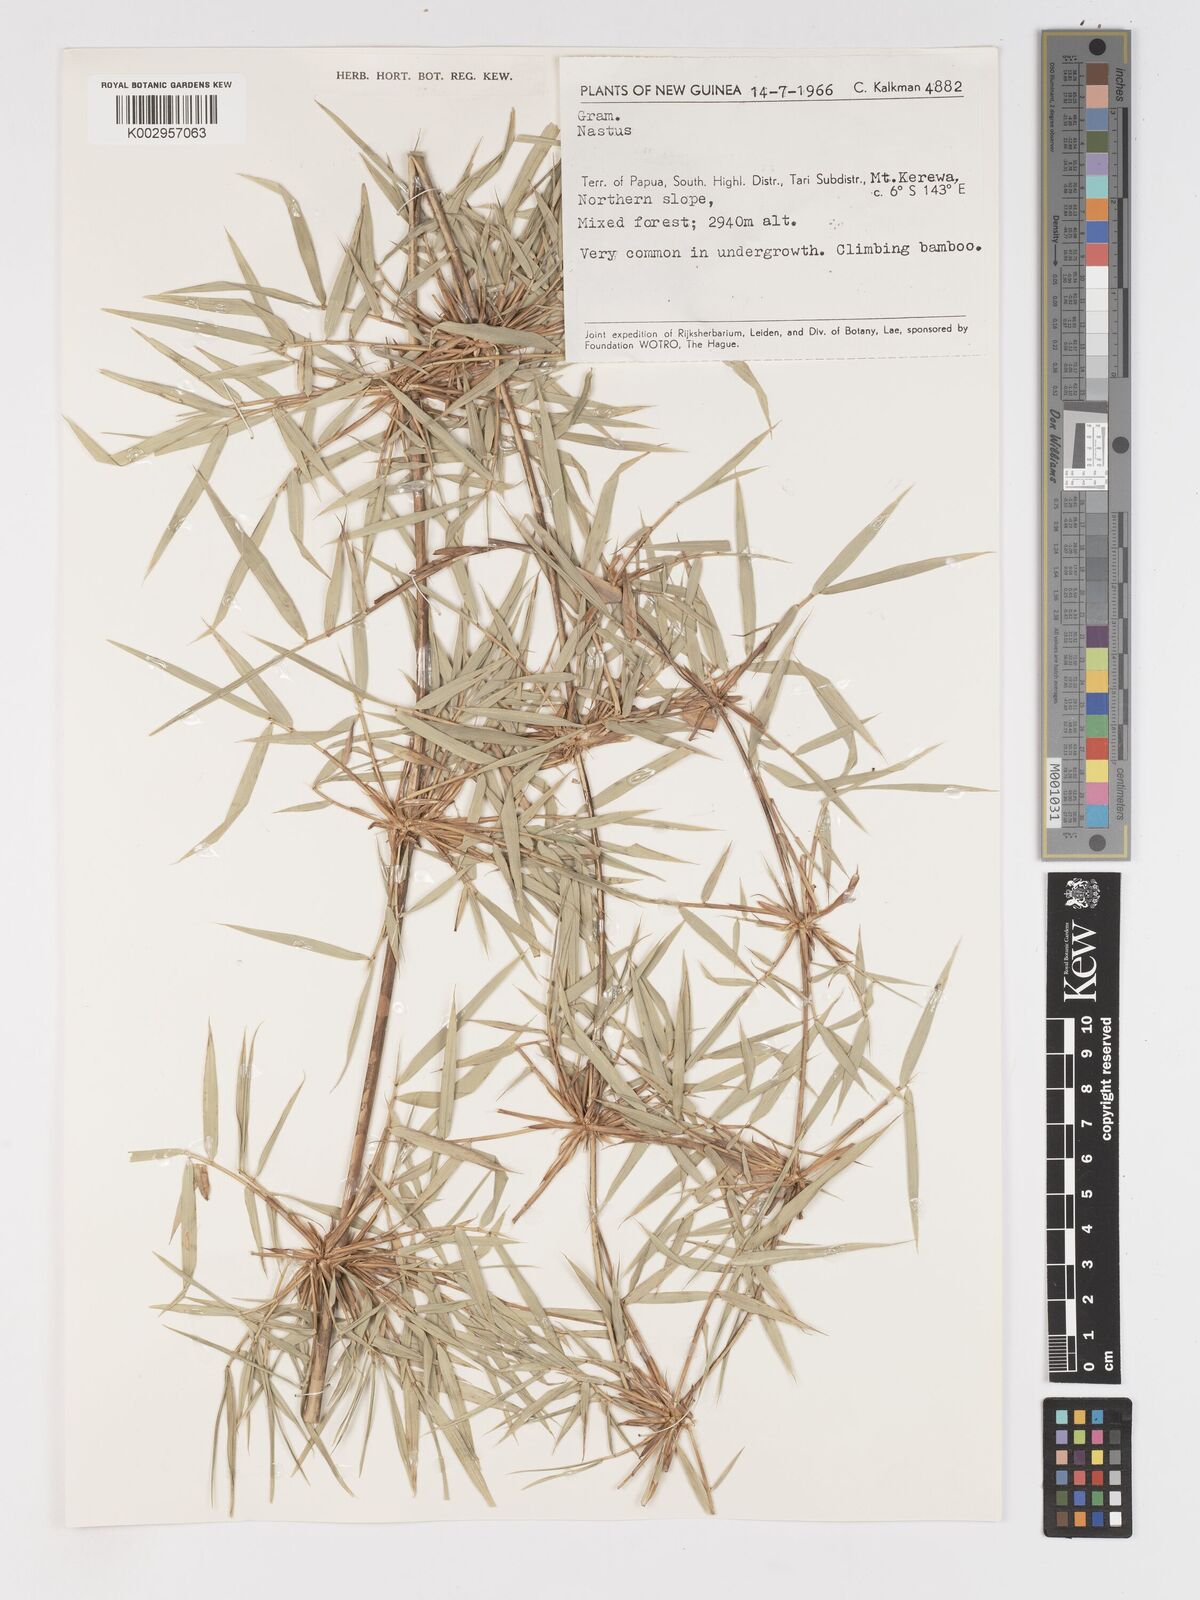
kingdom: Plantae
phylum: Tracheophyta
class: Liliopsida
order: Poales
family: Poaceae
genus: Racemobambos
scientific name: Racemobambos
